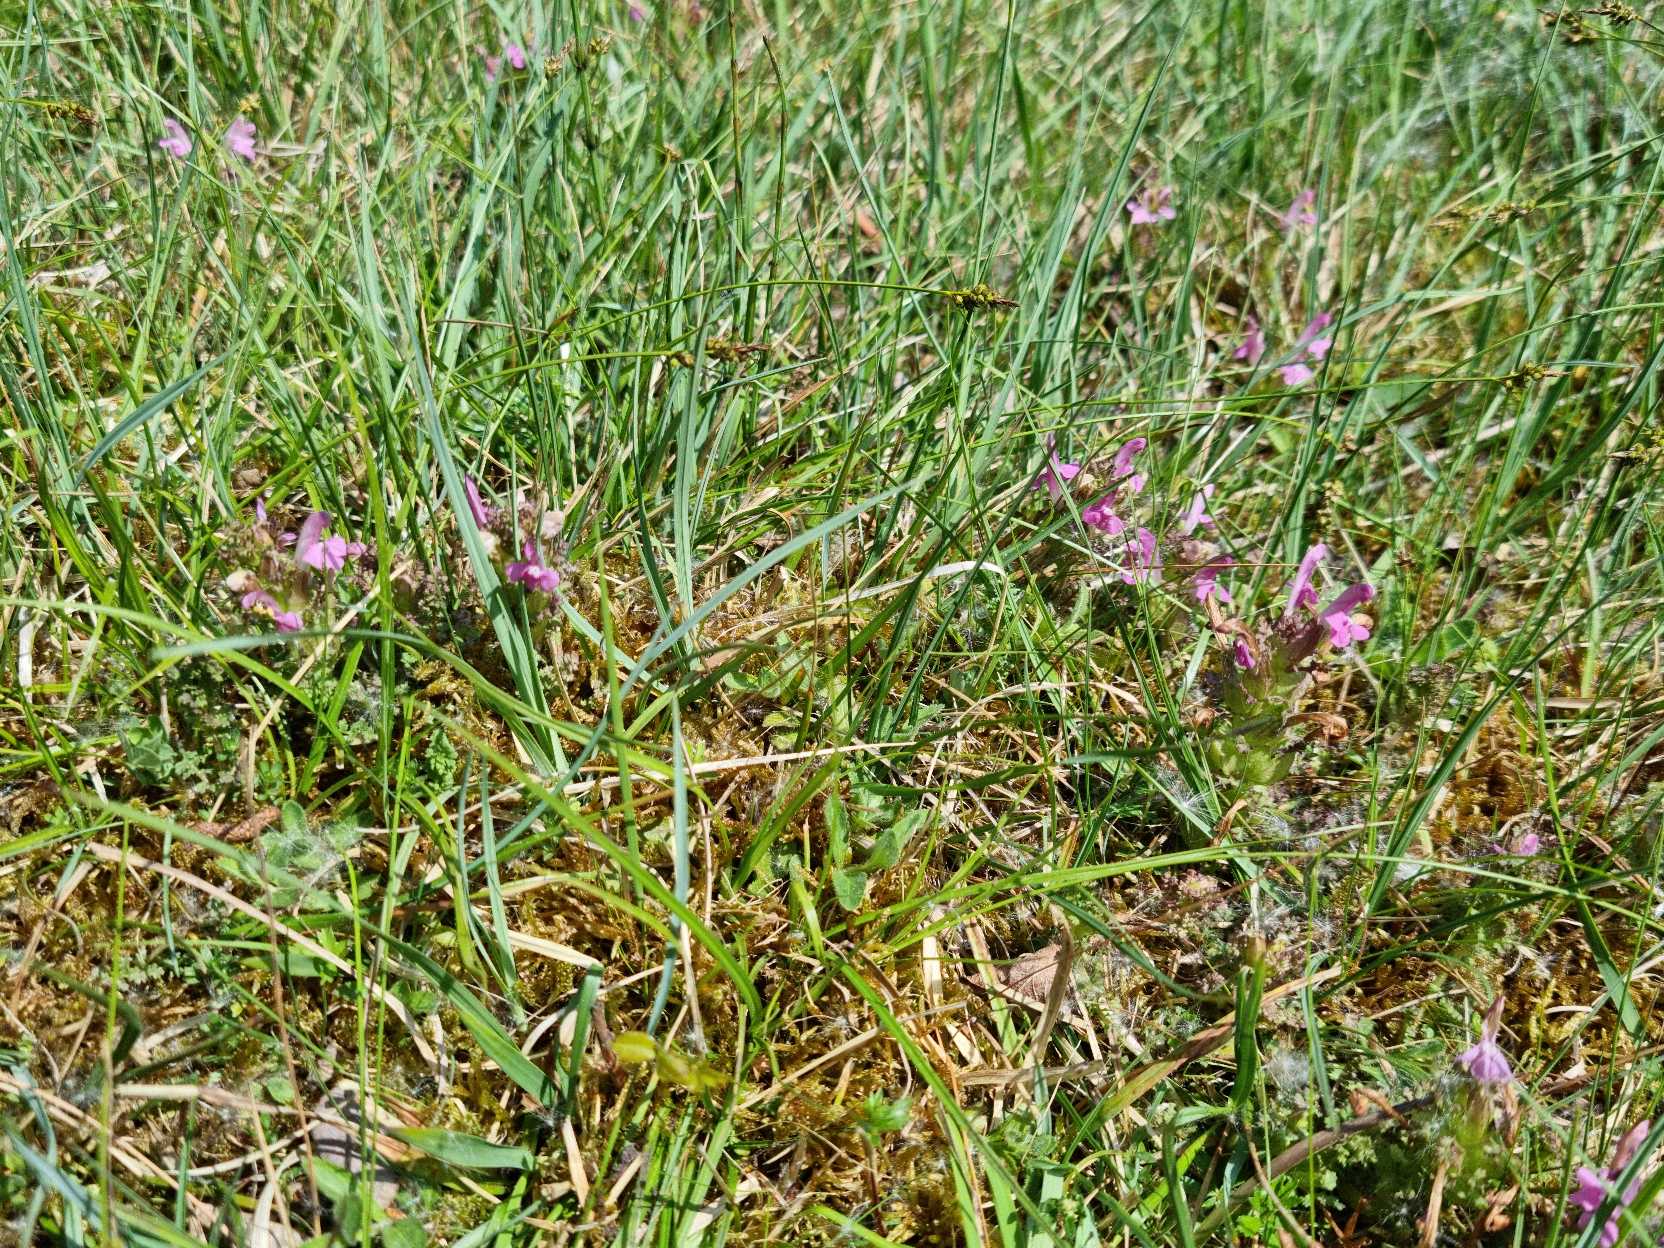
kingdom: Plantae
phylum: Tracheophyta
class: Magnoliopsida
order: Lamiales
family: Orobanchaceae
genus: Pedicularis
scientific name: Pedicularis sylvatica
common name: Mose-troldurt
